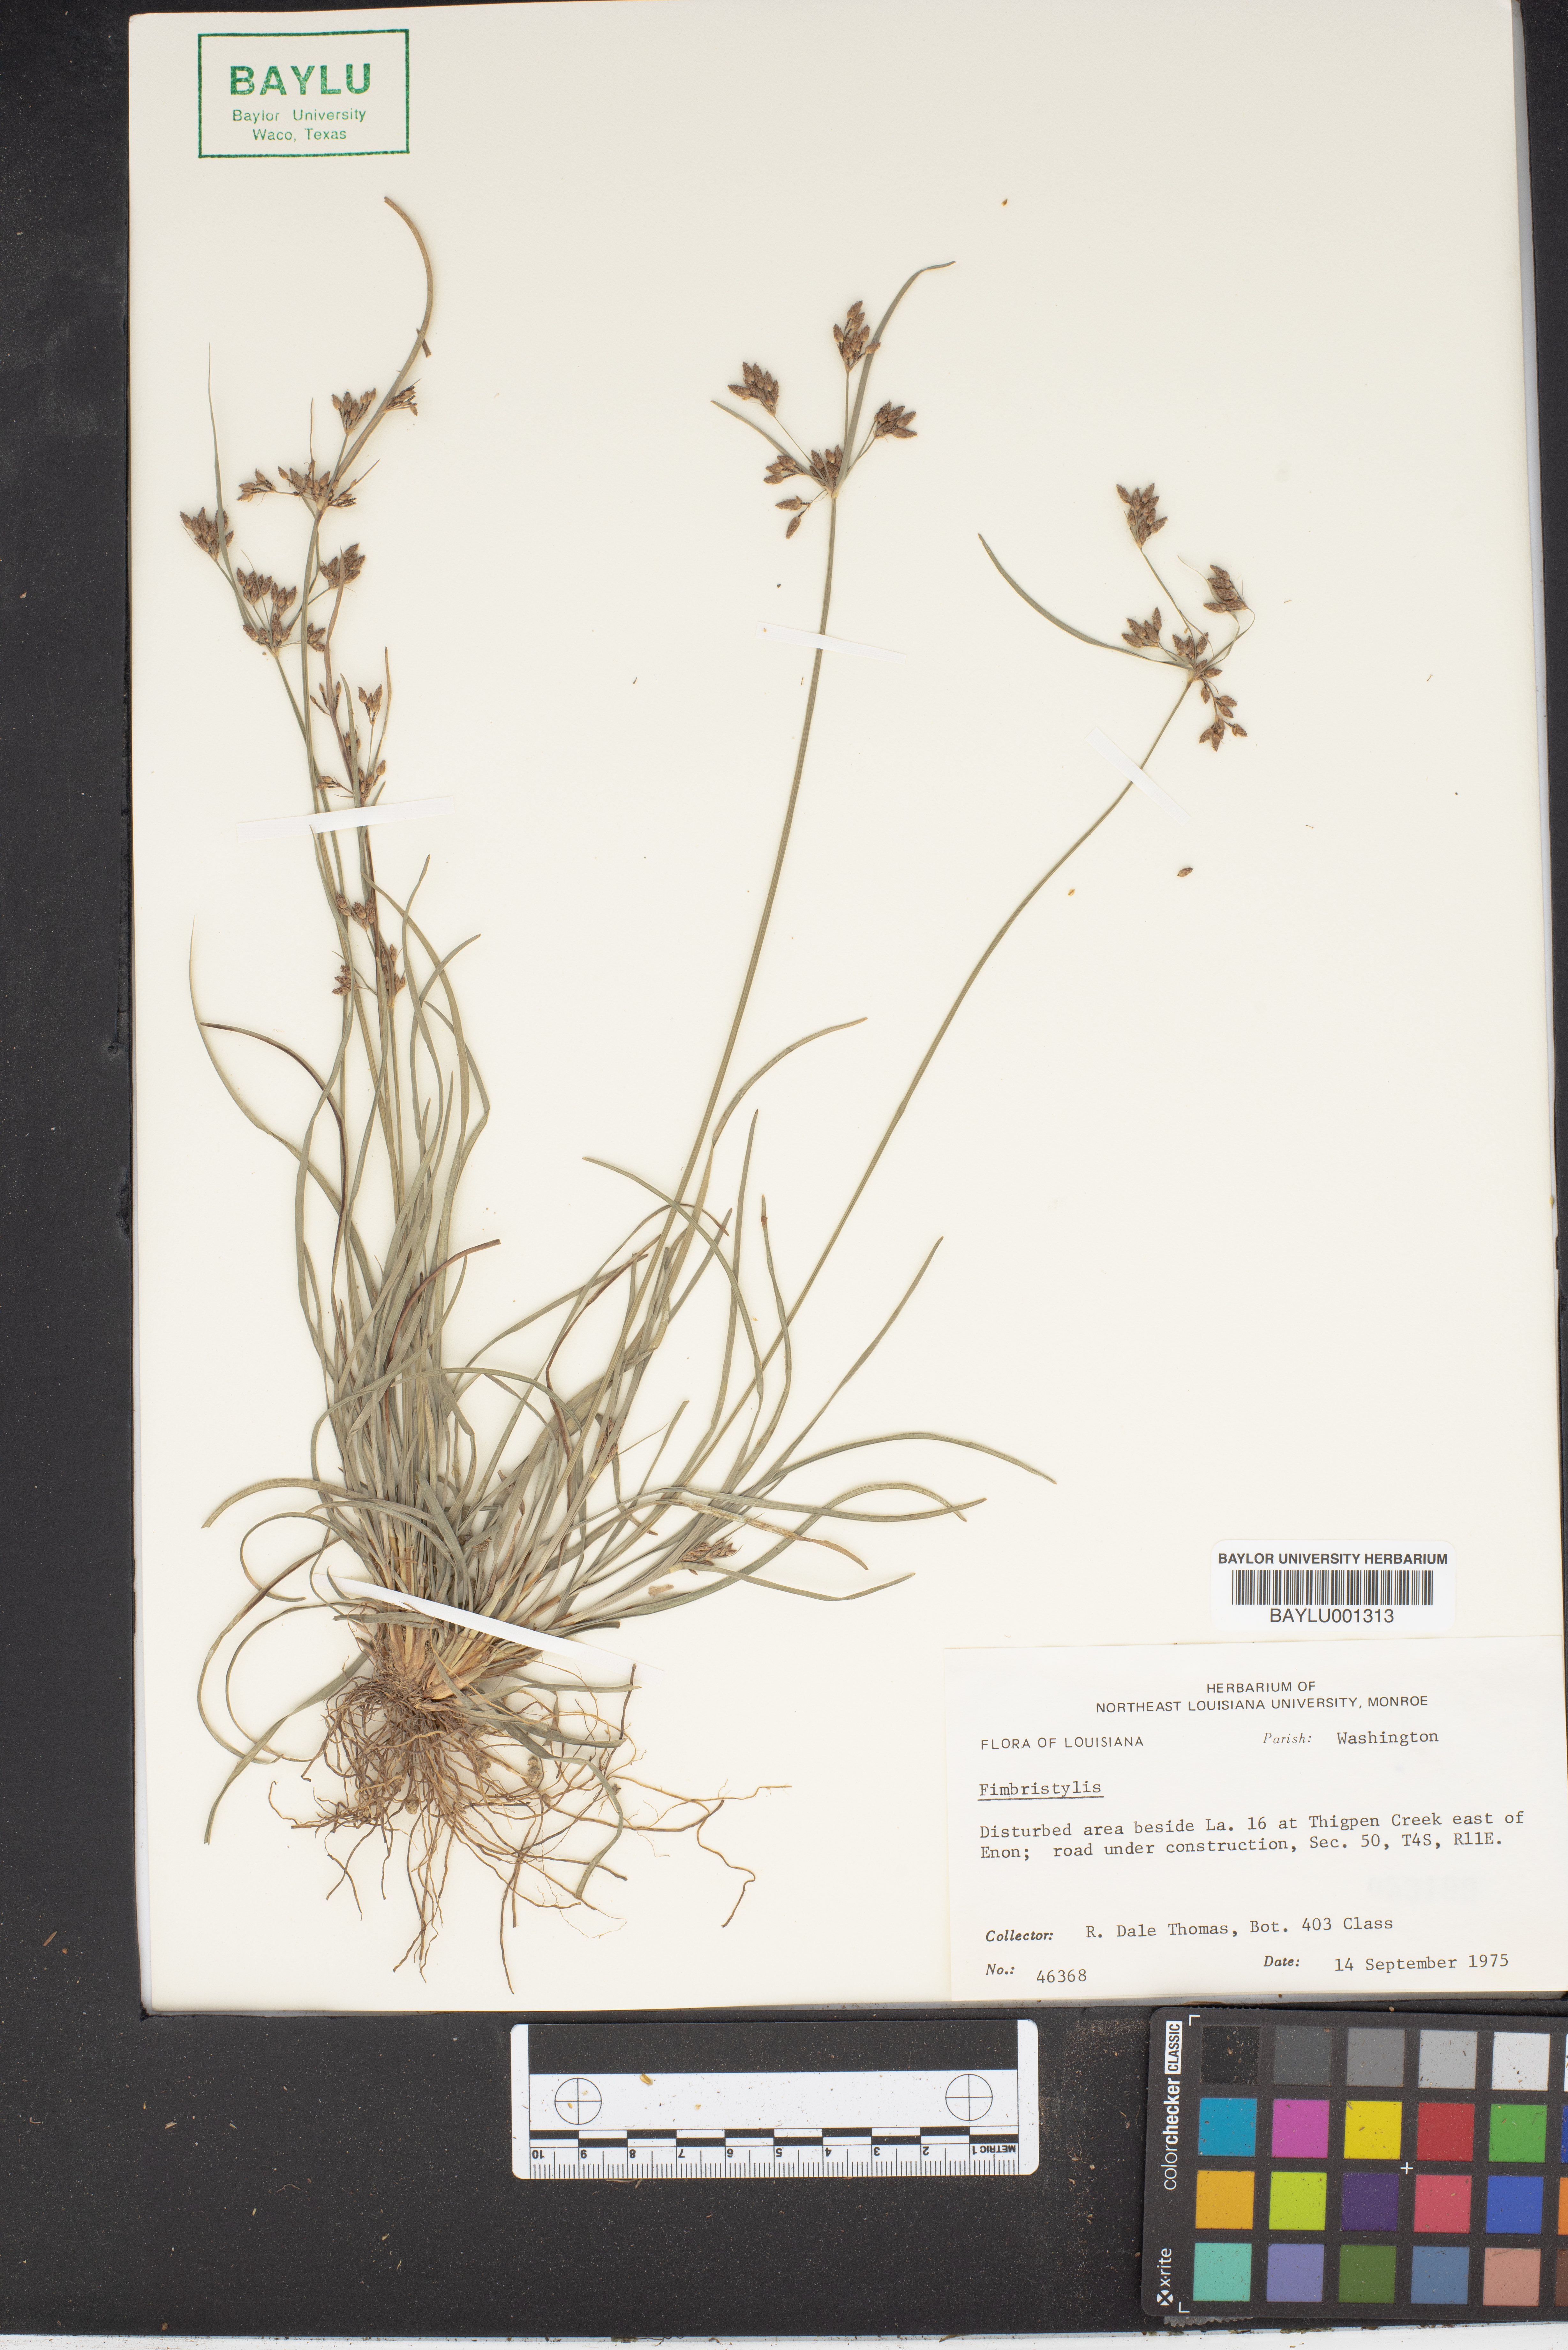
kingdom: Plantae
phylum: Tracheophyta
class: Liliopsida
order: Poales
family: Cyperaceae
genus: Fimbristylis
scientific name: Fimbristylis
